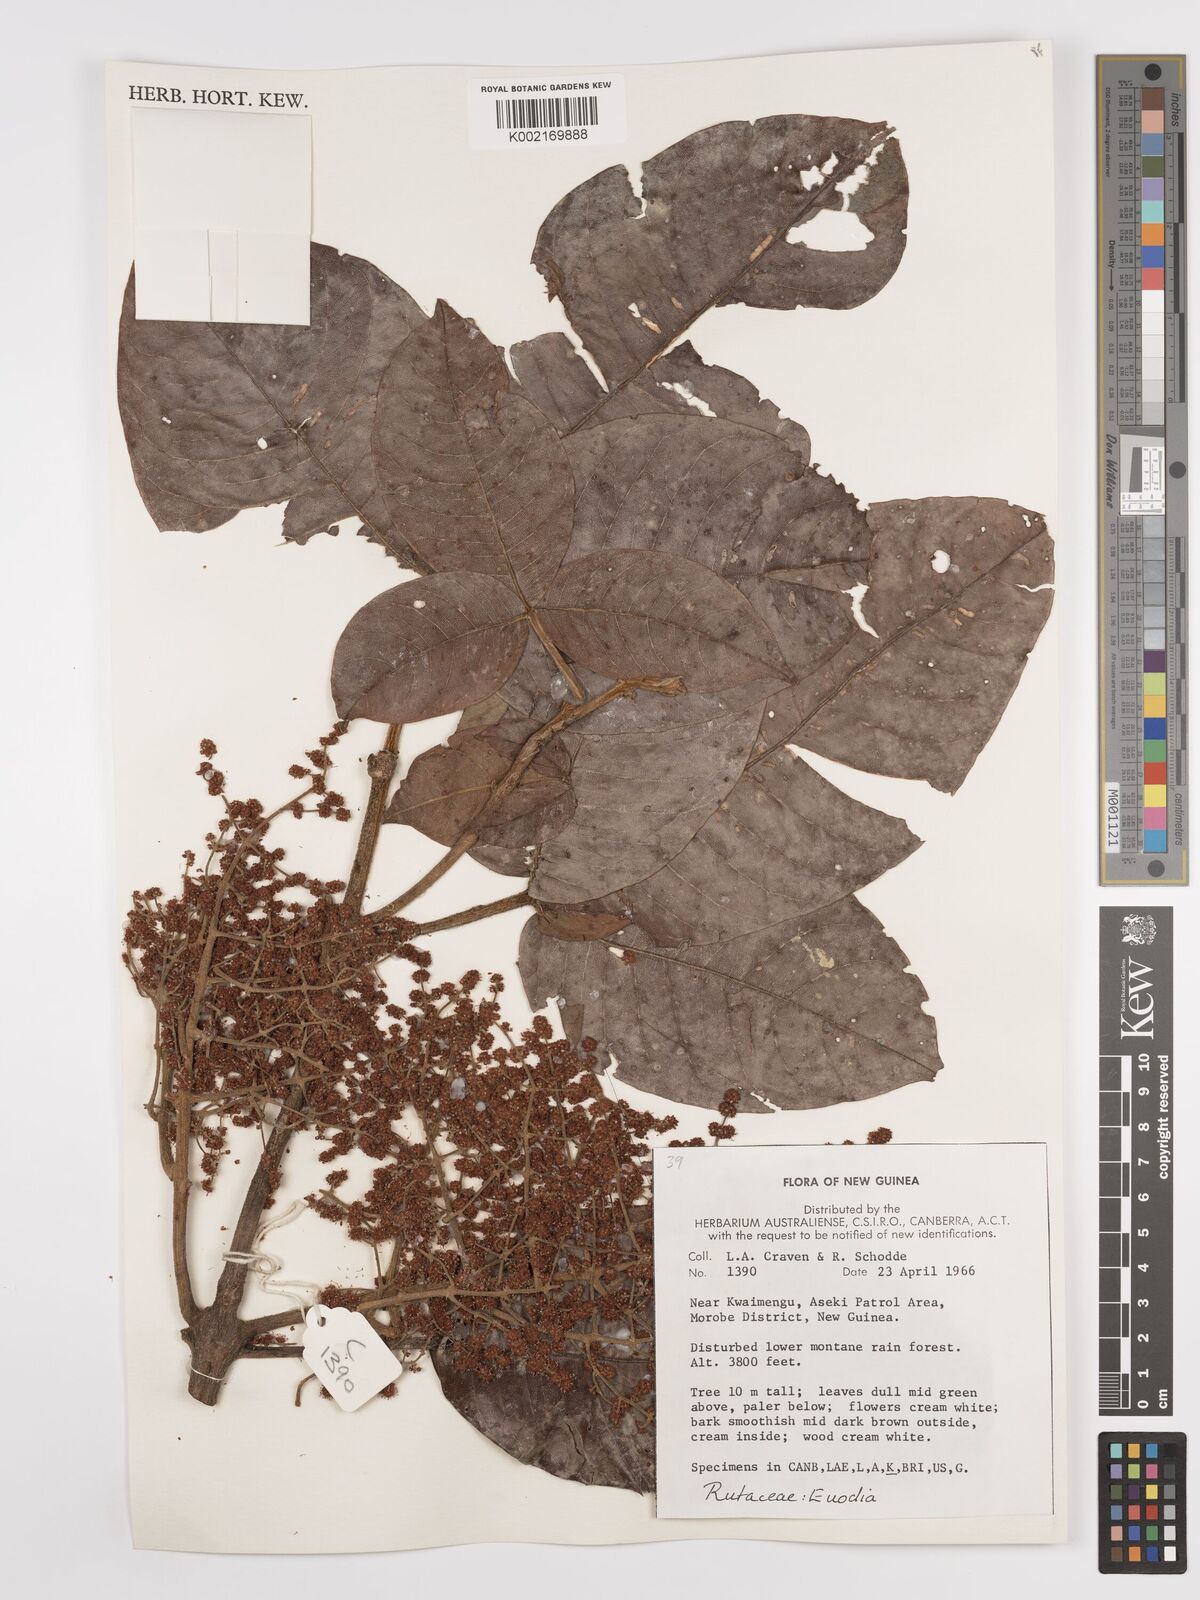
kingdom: Plantae
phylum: Tracheophyta
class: Magnoliopsida
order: Sapindales
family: Rutaceae
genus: Euodia
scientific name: Euodia
